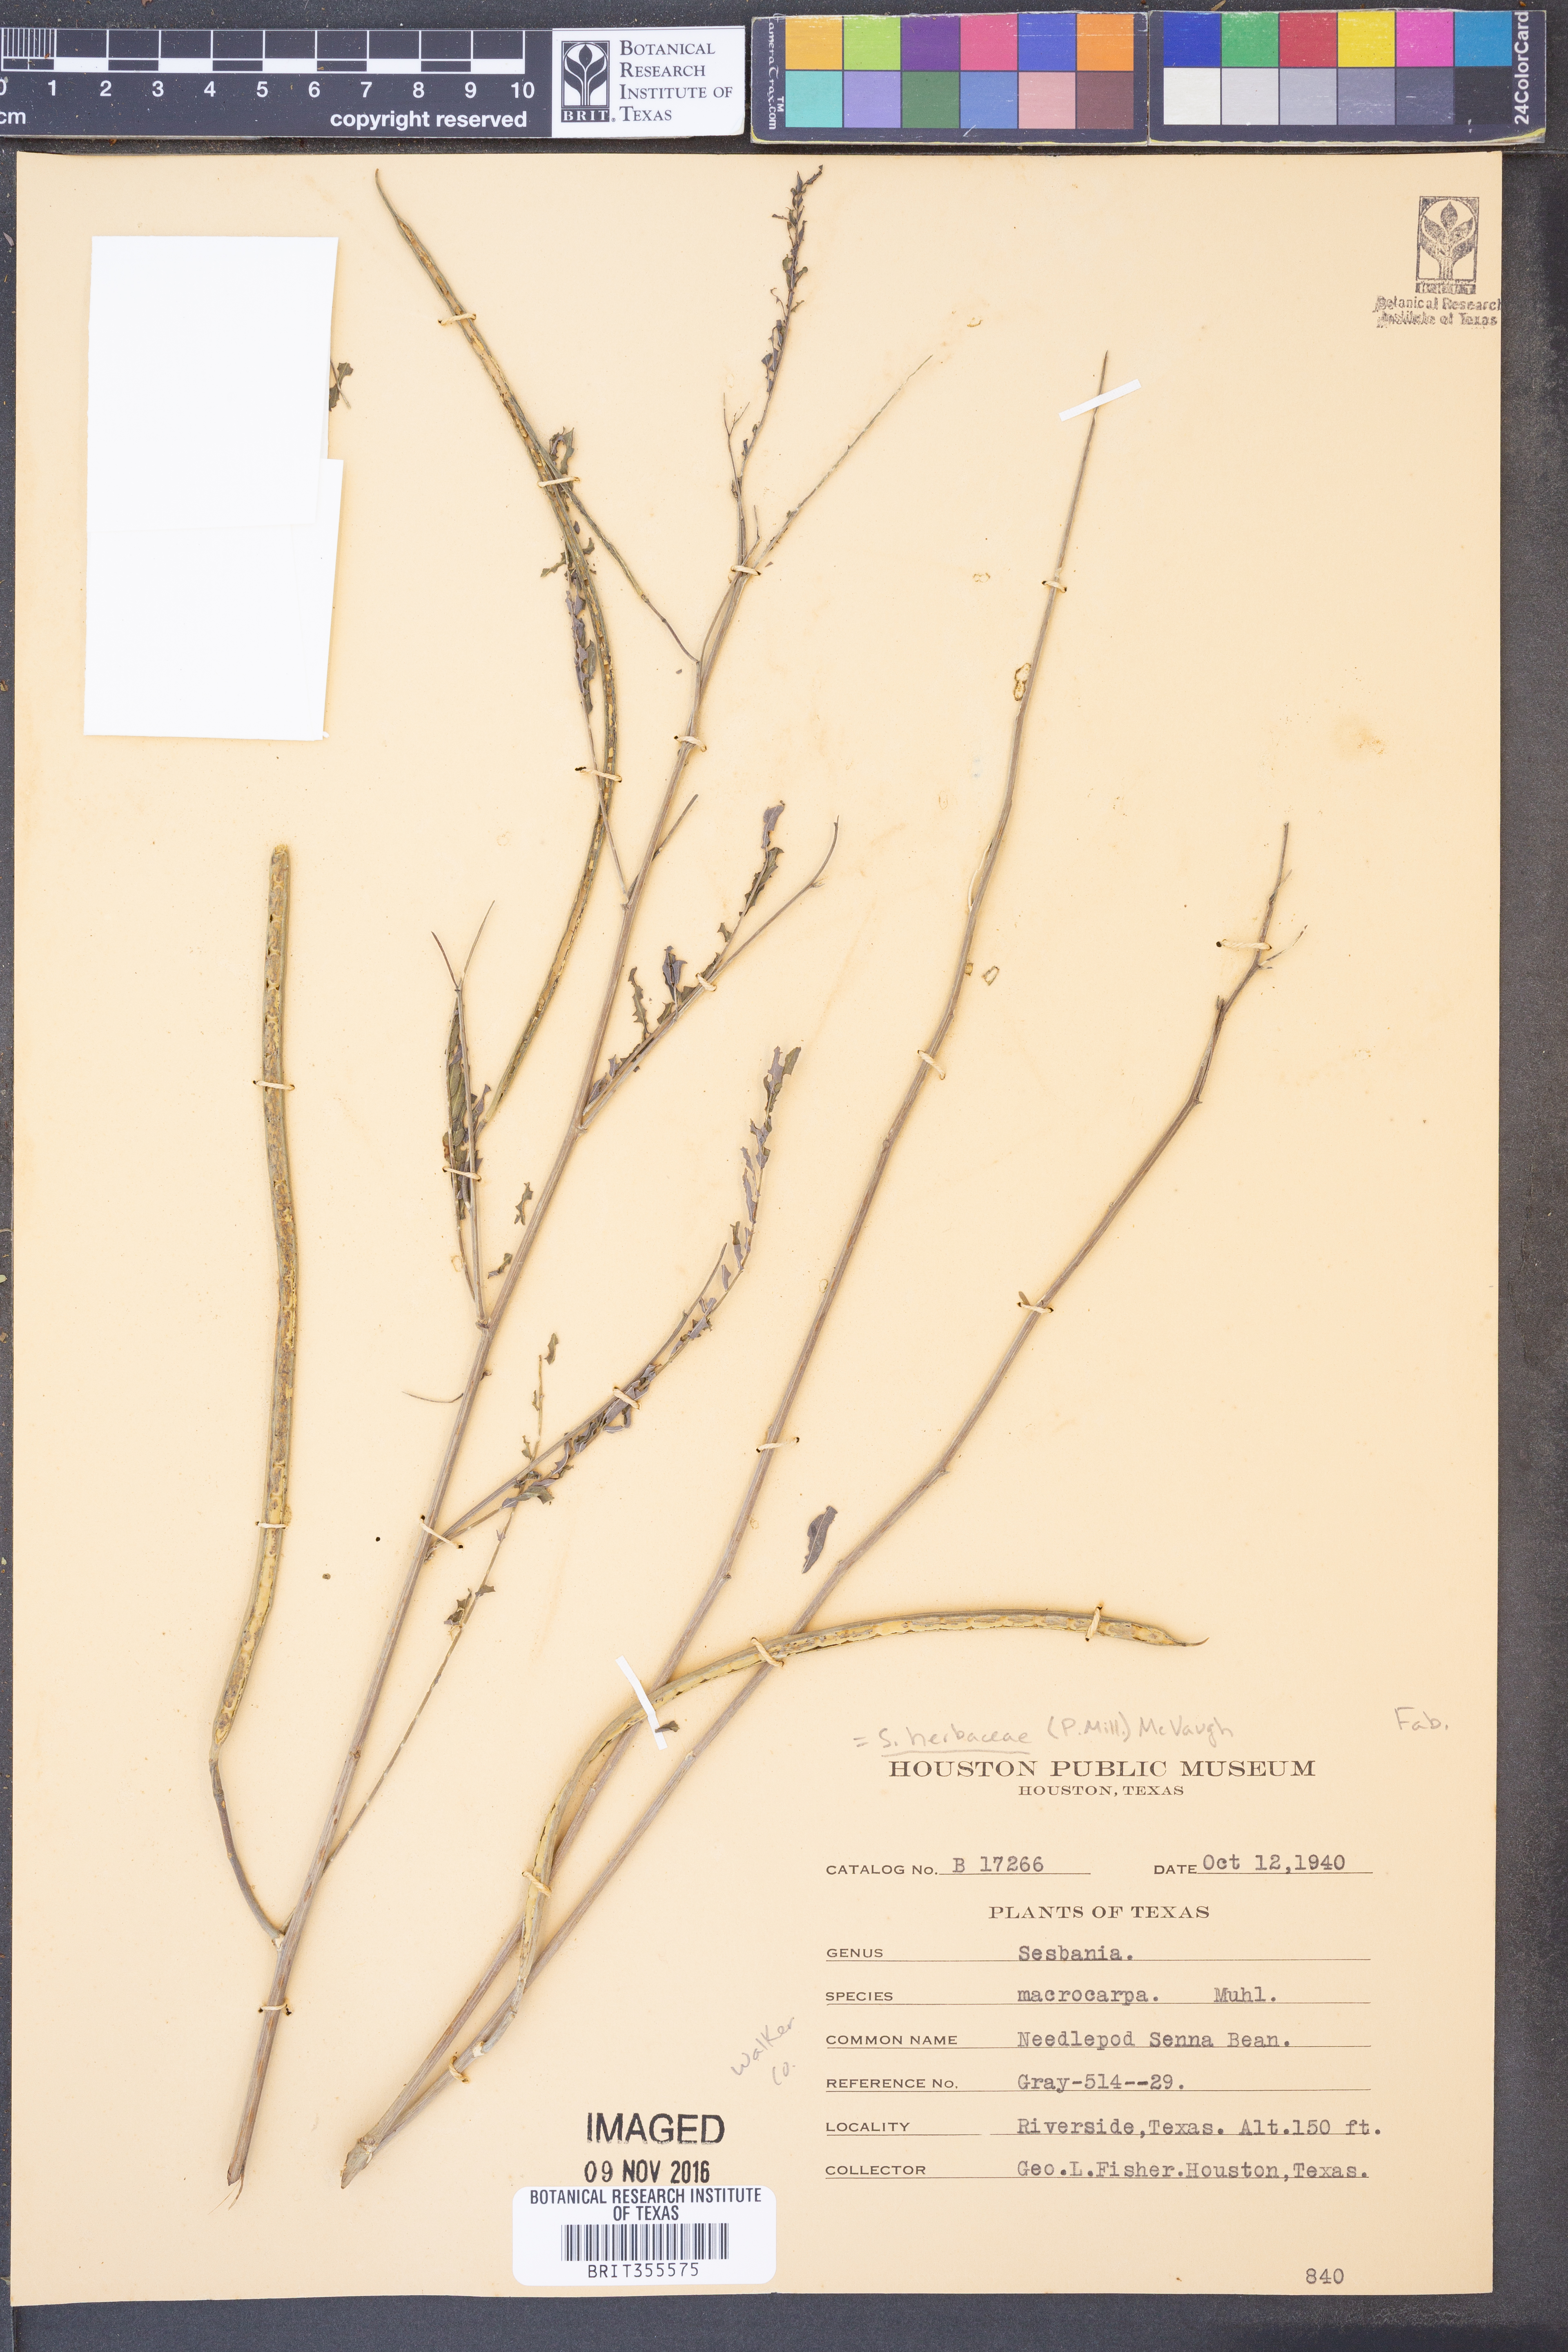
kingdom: Plantae
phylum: Tracheophyta
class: Magnoliopsida
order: Fabales
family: Fabaceae
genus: Sesbania
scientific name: Sesbania herbacea
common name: Bigpod sesbania
